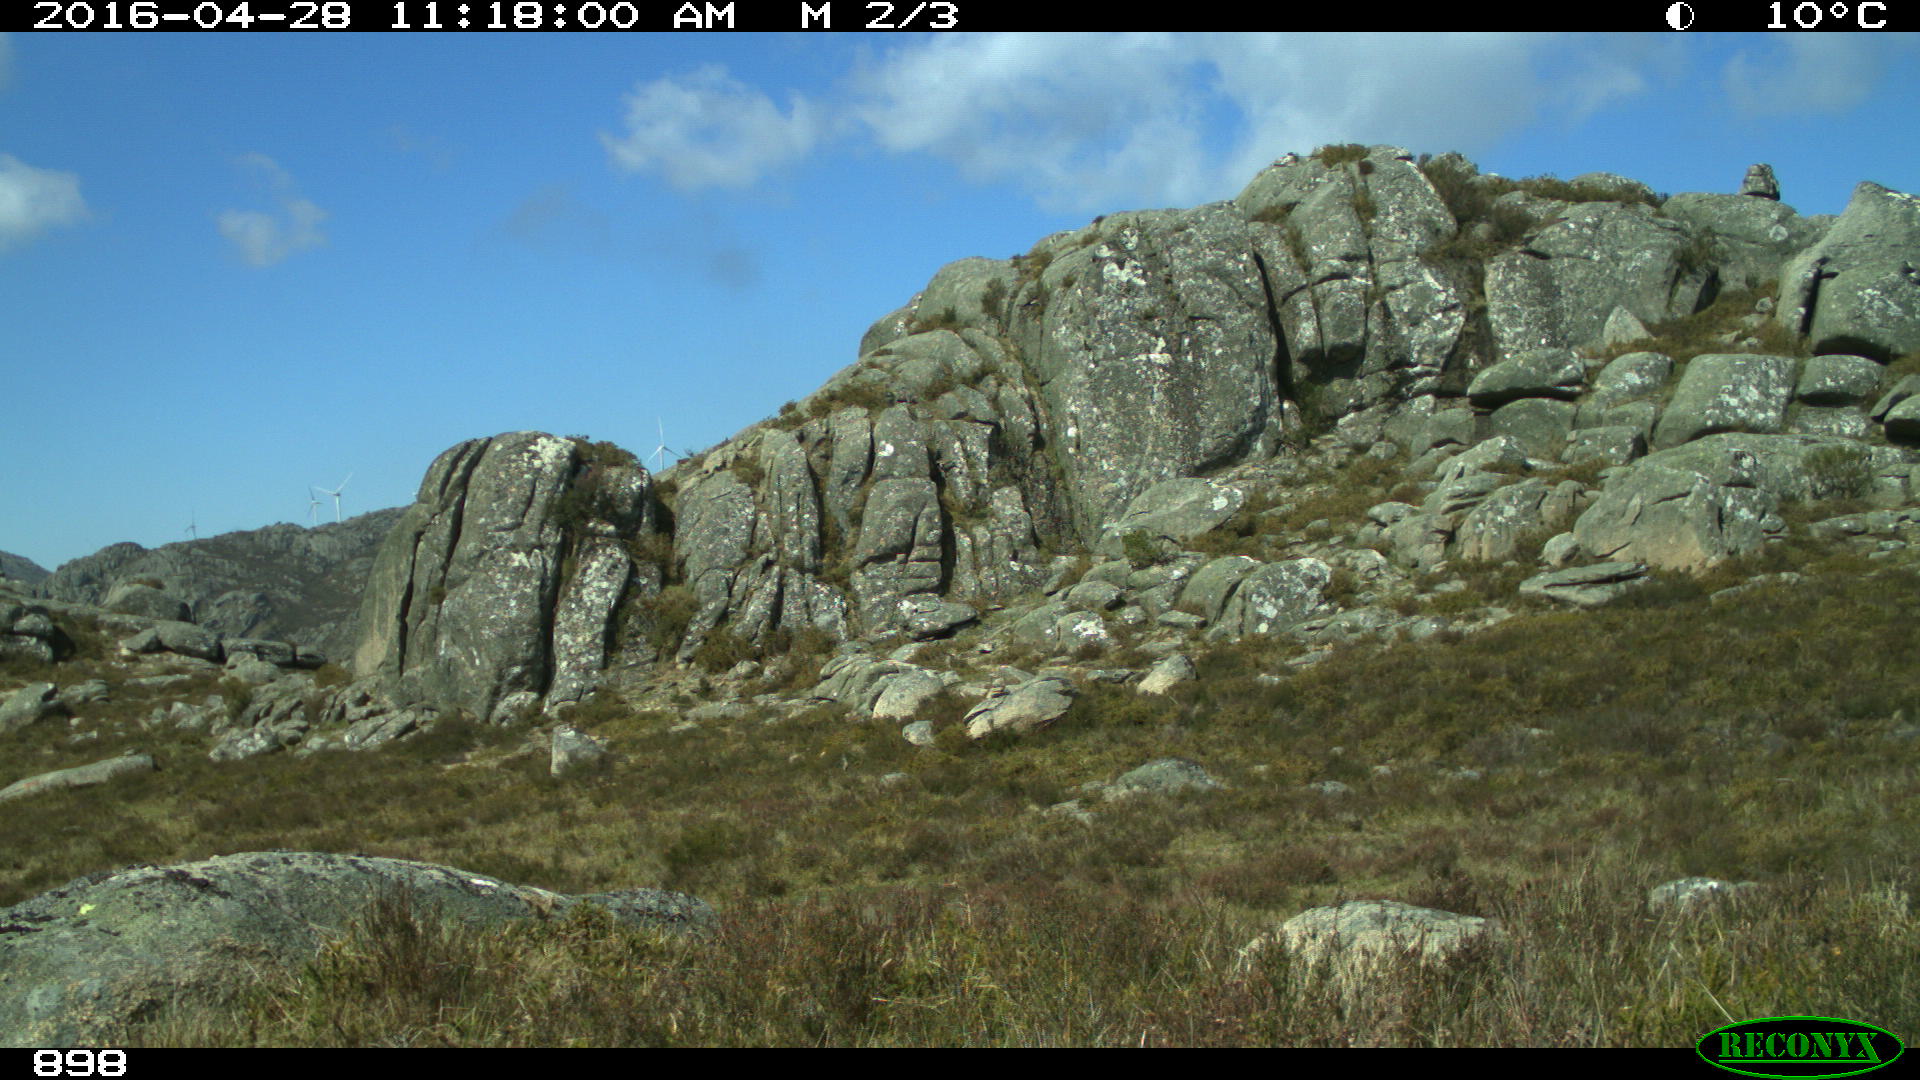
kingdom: Animalia
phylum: Chordata
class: Mammalia
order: Artiodactyla
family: Bovidae
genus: Bos
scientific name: Bos taurus
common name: Domesticated cattle
